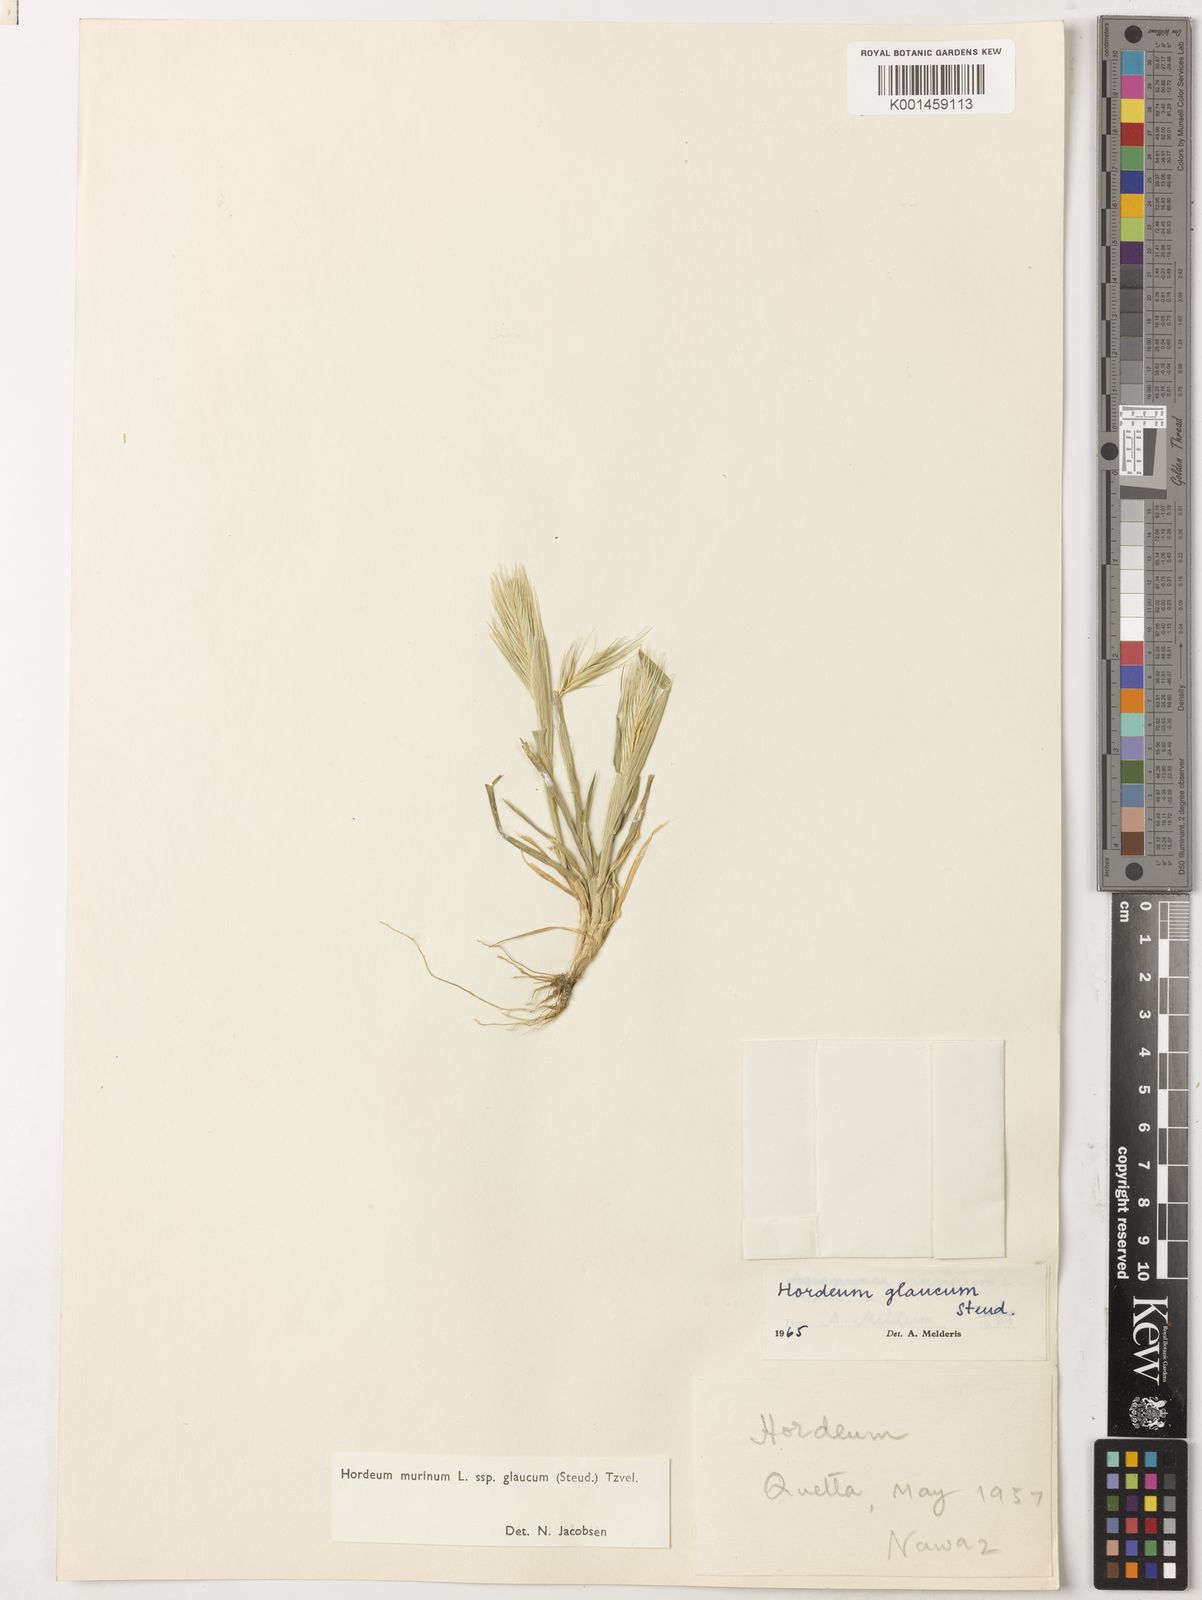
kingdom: Plantae
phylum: Tracheophyta
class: Liliopsida
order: Poales
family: Poaceae
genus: Hordeum
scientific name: Hordeum murinum
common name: Wall barley
